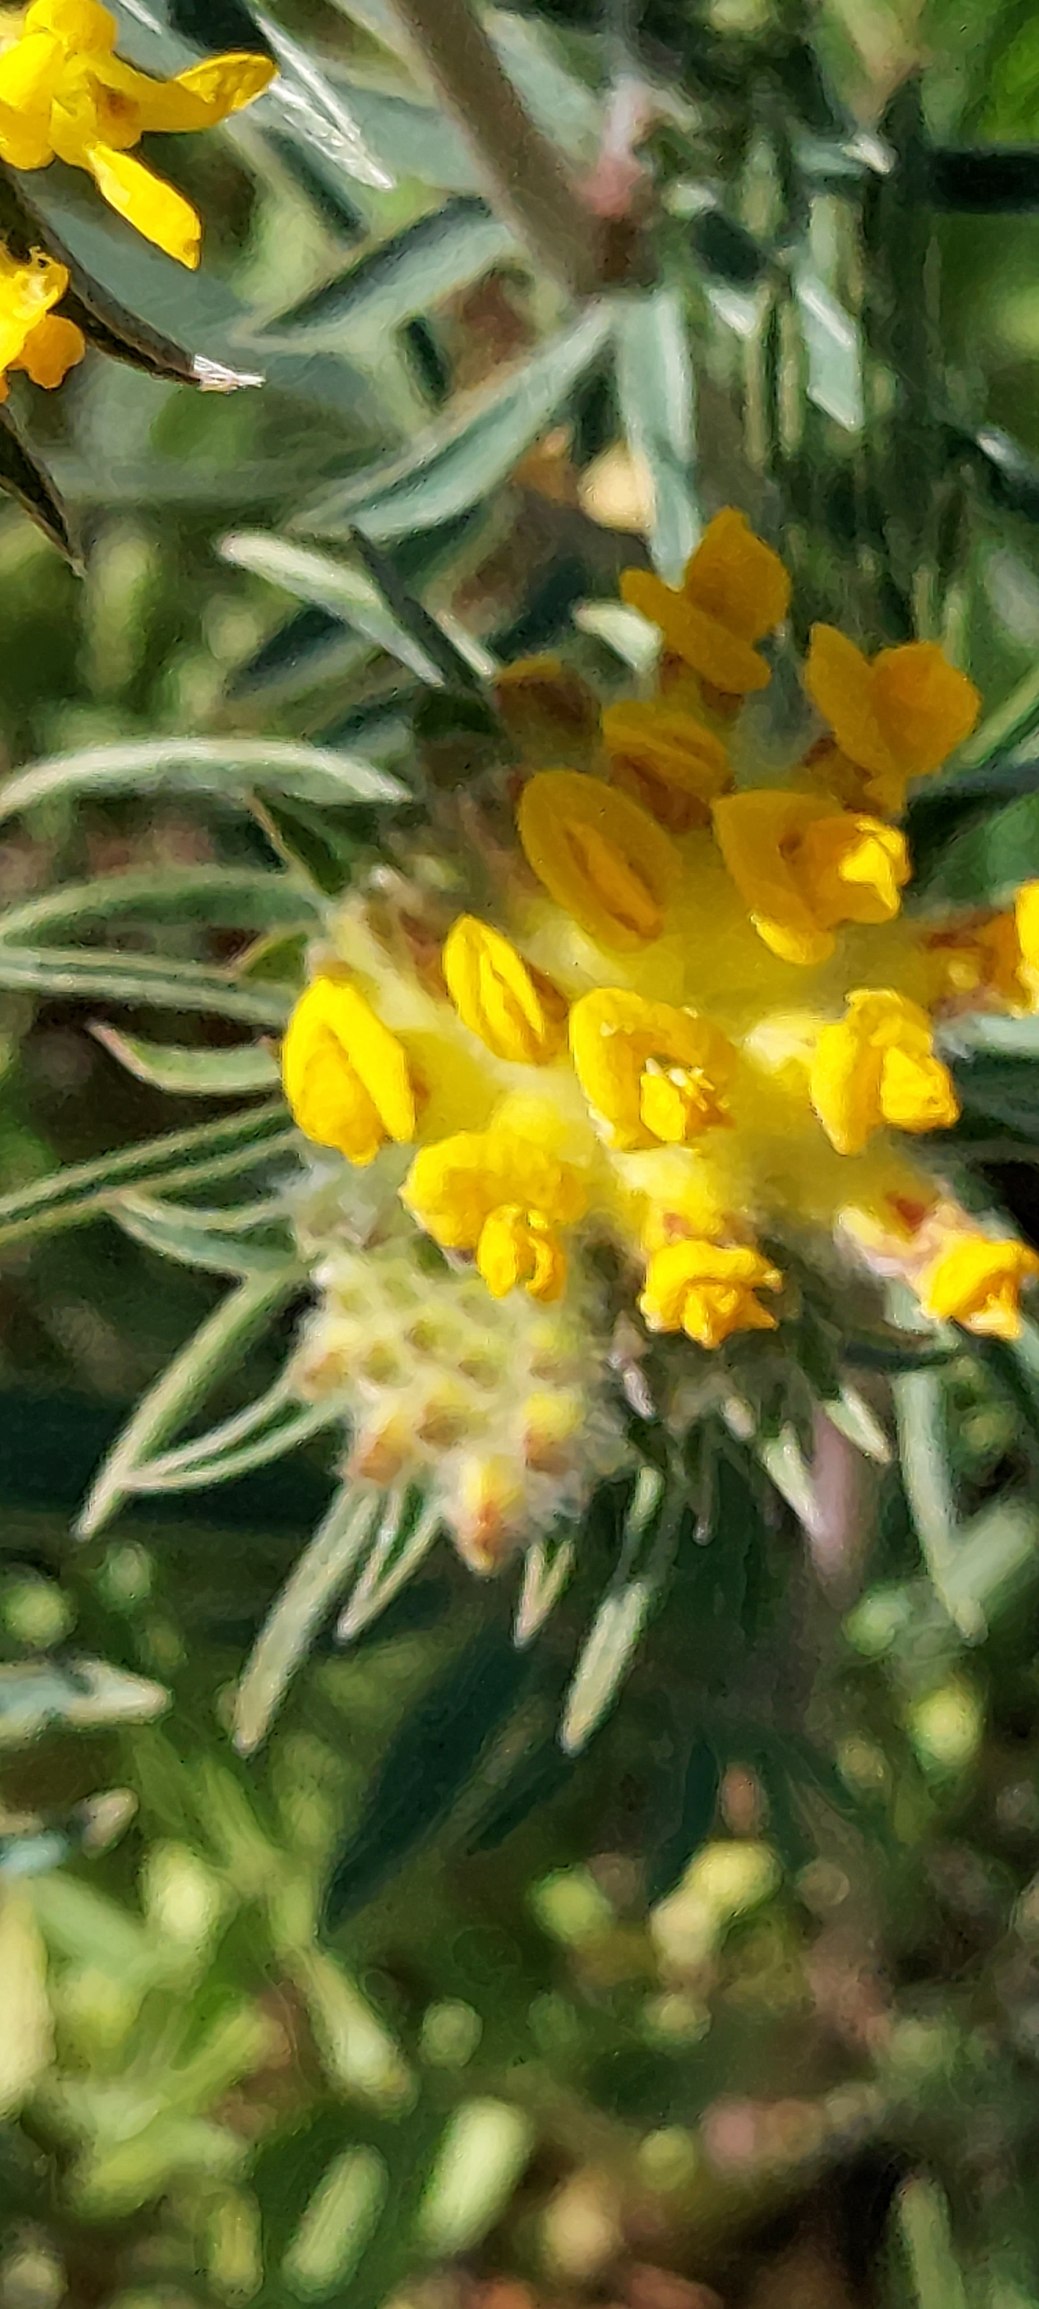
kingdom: Plantae
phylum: Tracheophyta
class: Magnoliopsida
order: Fabales
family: Fabaceae
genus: Anthyllis
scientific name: Anthyllis vulneraria
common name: Rundbælg
